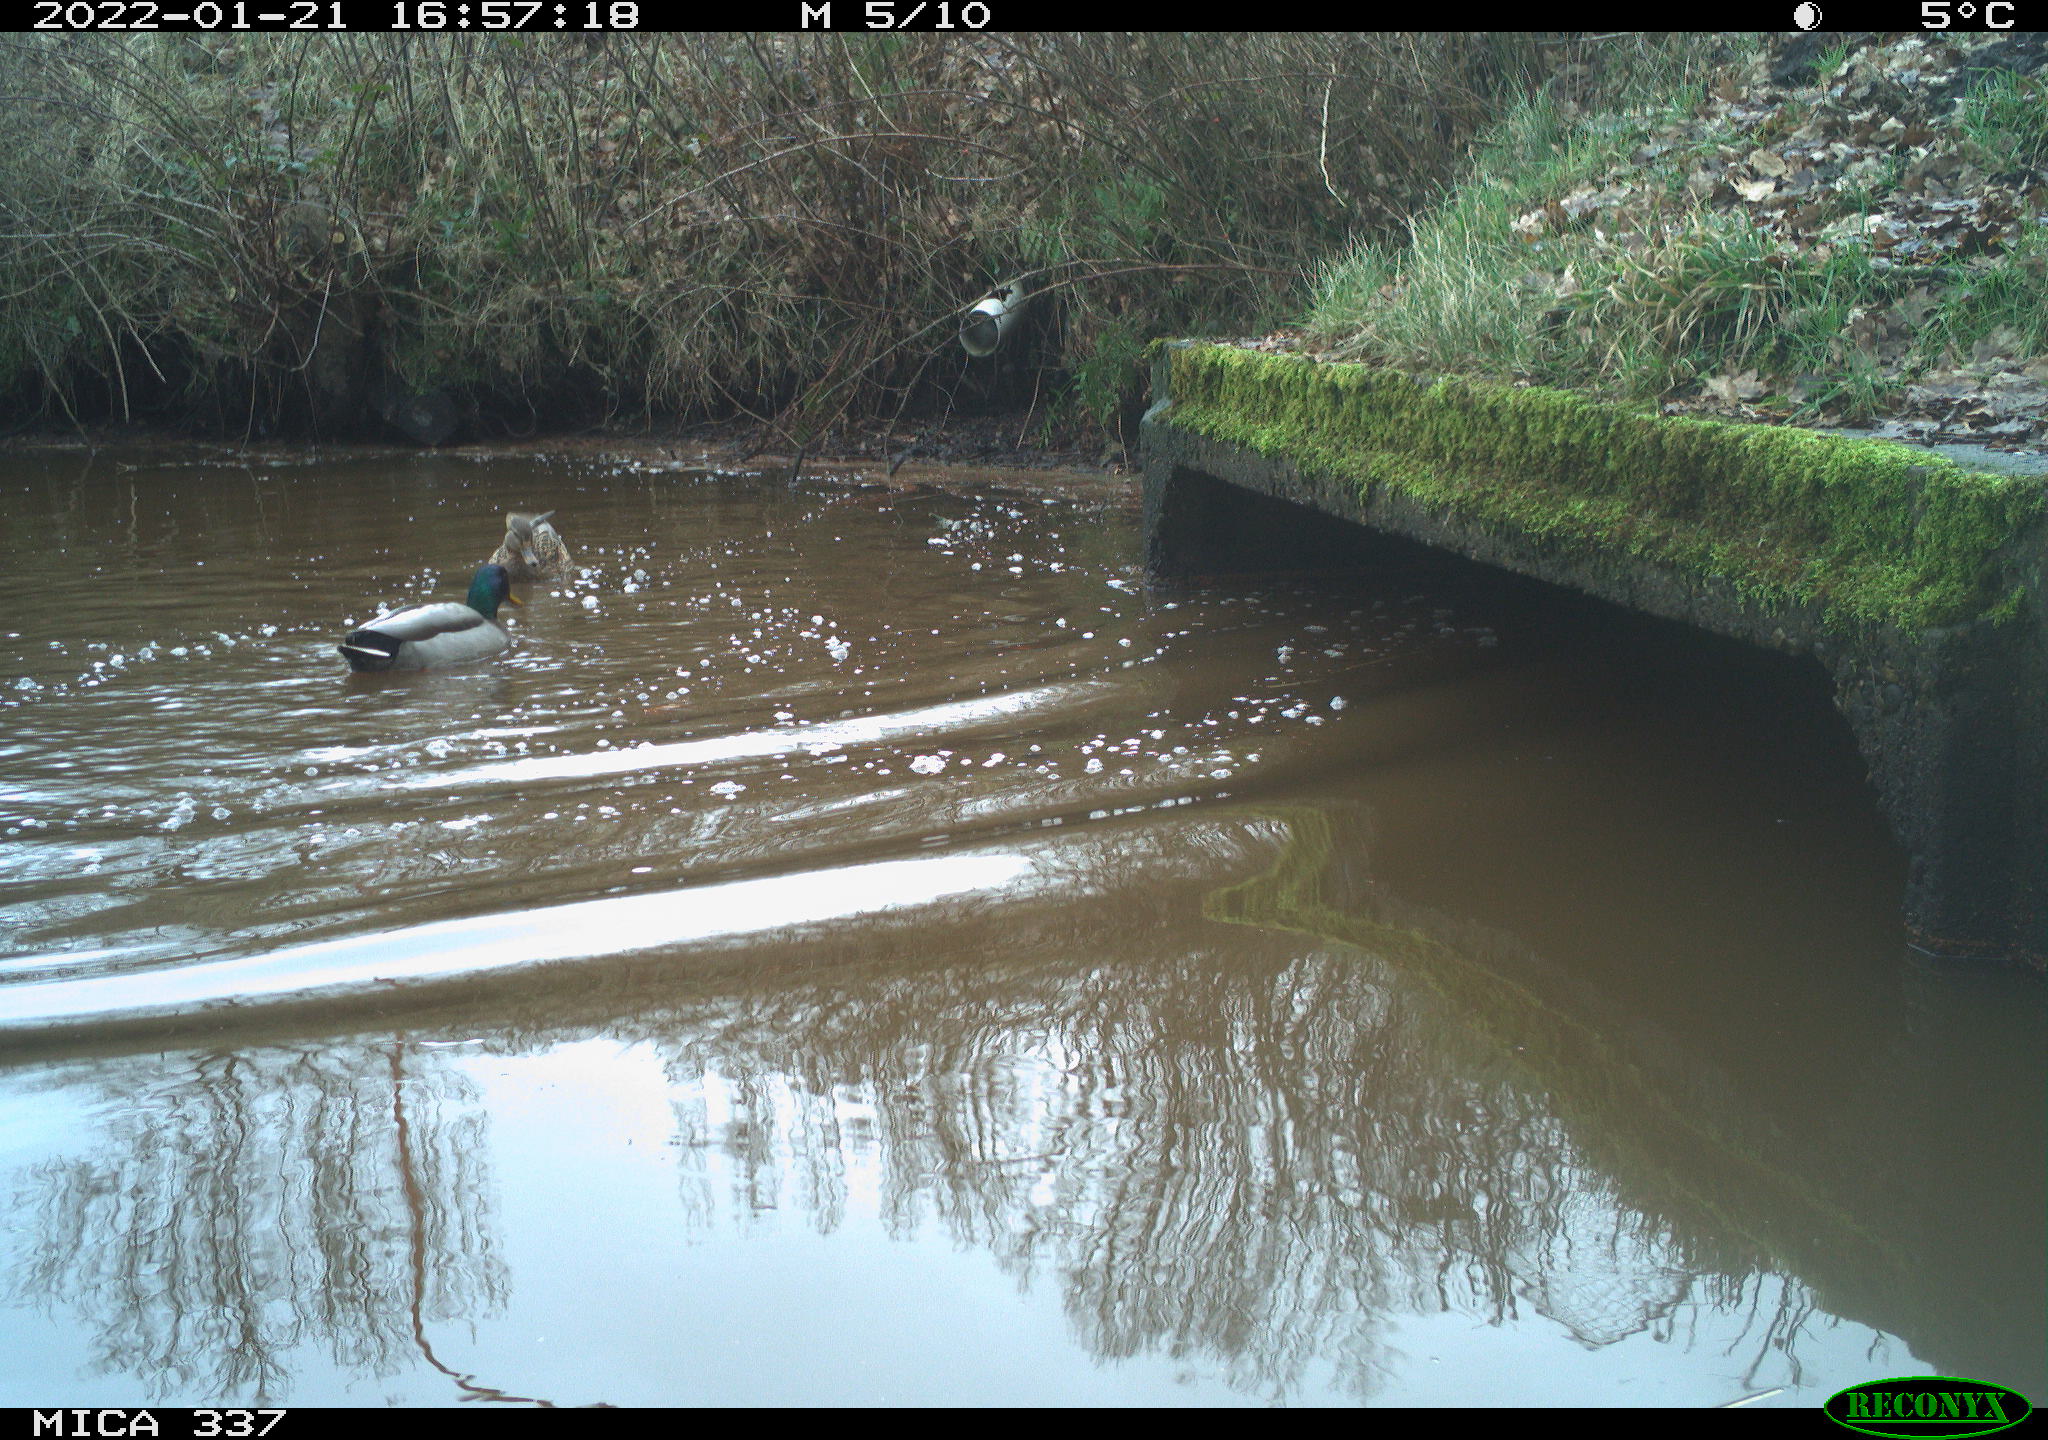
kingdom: Animalia
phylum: Chordata
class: Aves
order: Anseriformes
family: Anatidae
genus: Anas
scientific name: Anas platyrhynchos
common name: Mallard
